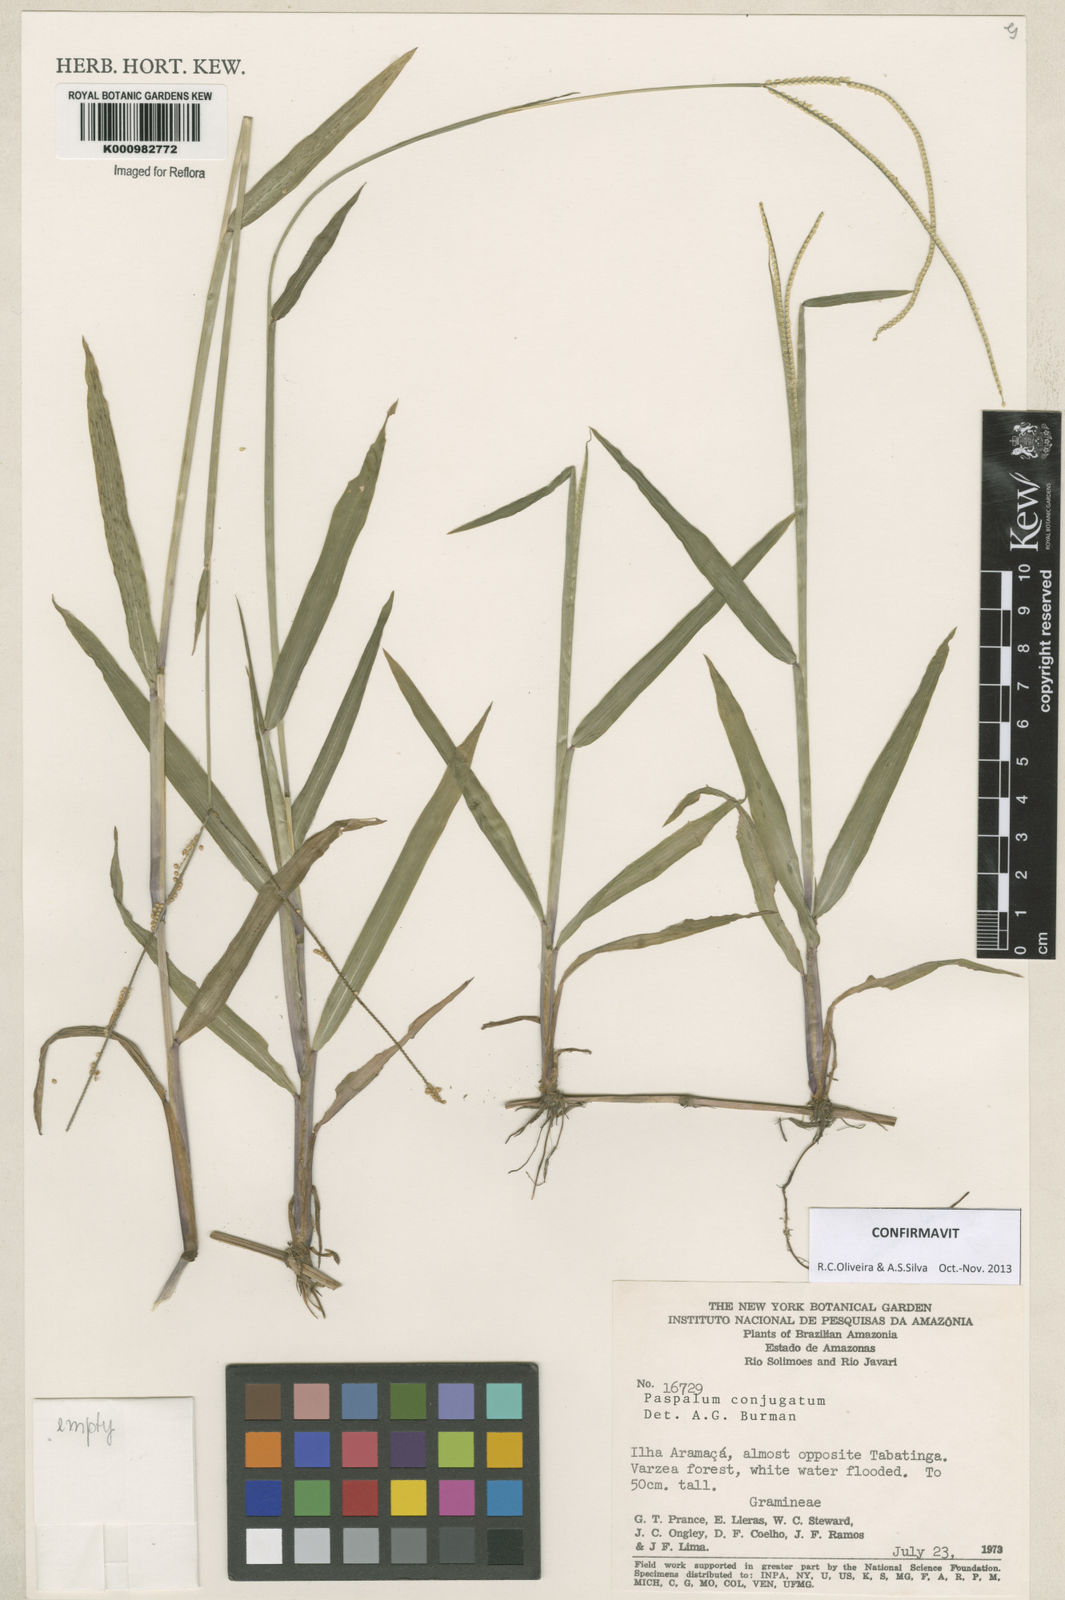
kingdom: Plantae
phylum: Tracheophyta
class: Liliopsida
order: Poales
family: Poaceae
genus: Paspalum
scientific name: Paspalum conjugatum
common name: Hilograss
